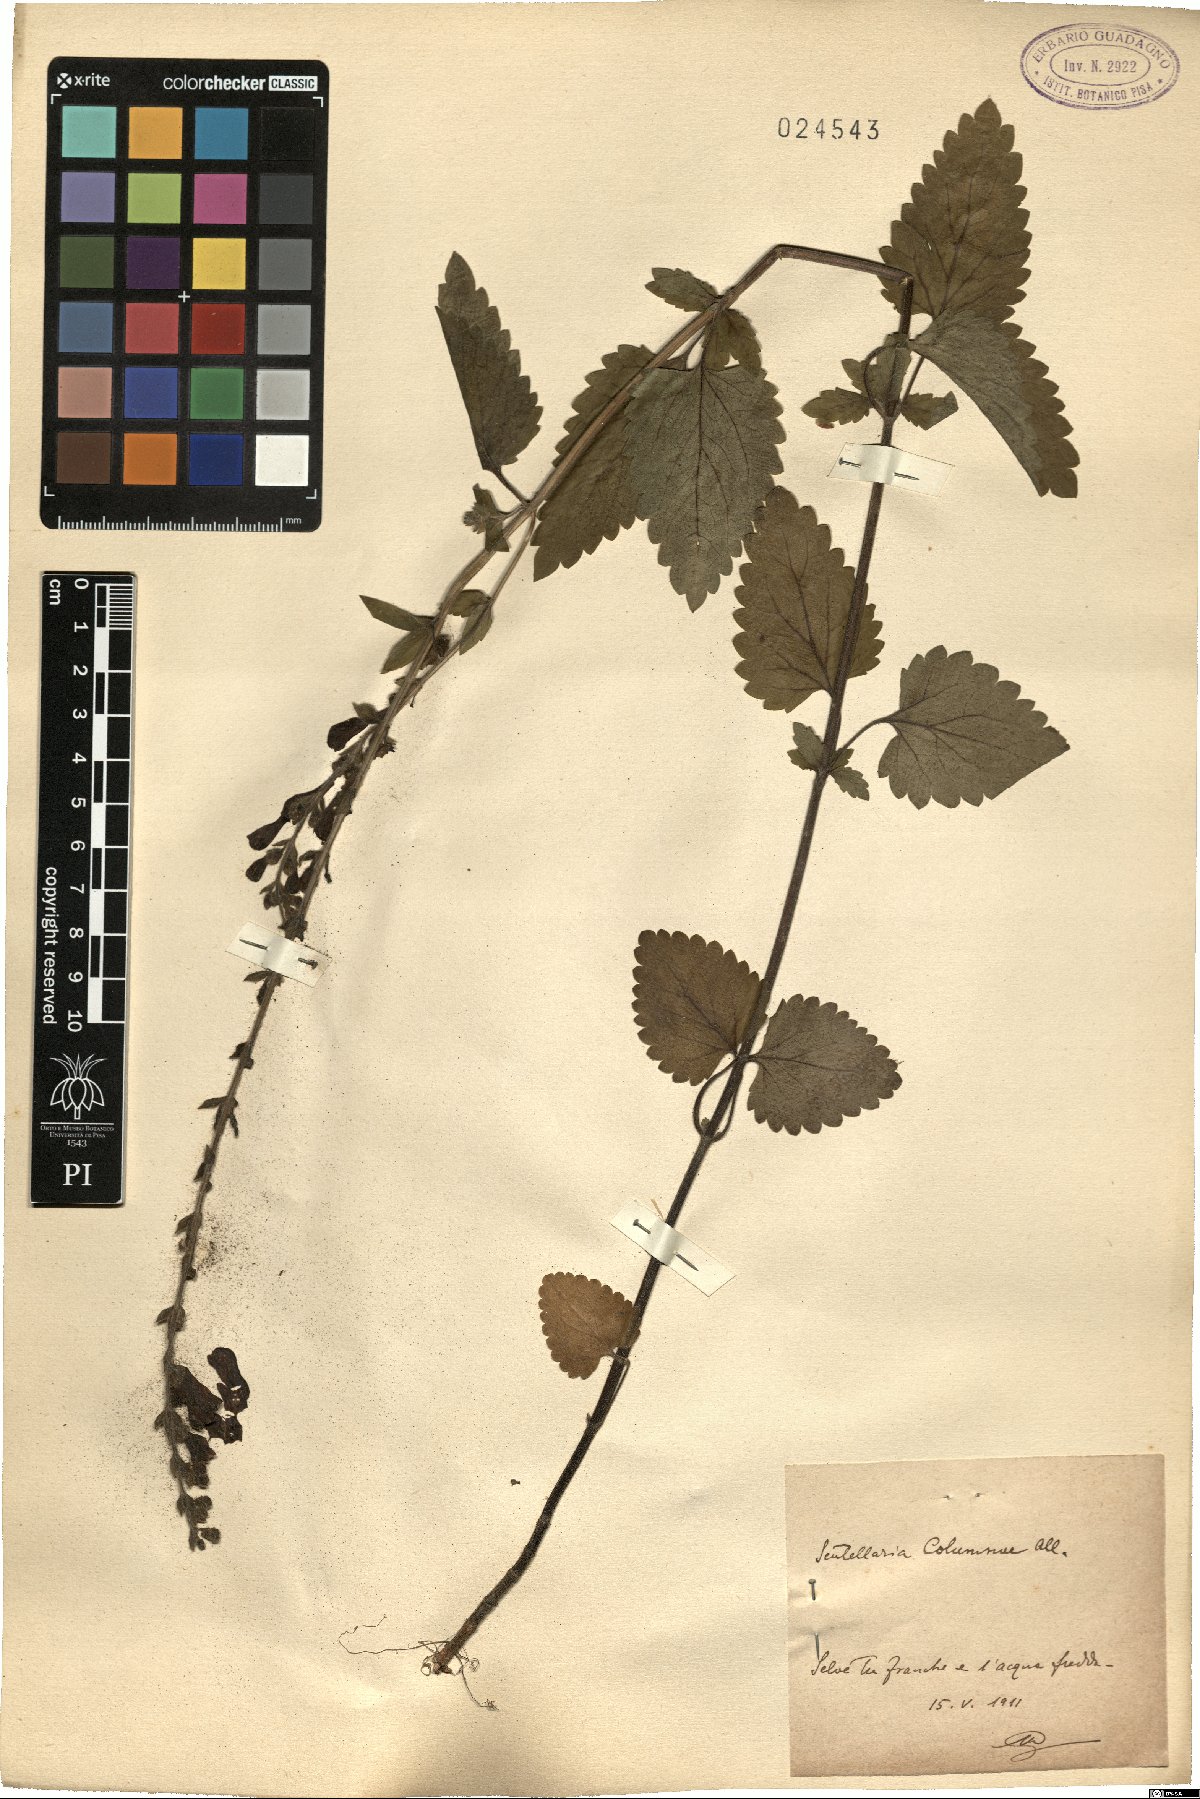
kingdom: Plantae
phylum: Tracheophyta
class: Magnoliopsida
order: Lamiales
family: Lamiaceae
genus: Scutellaria
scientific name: Scutellaria columnae
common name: Large skullcap
